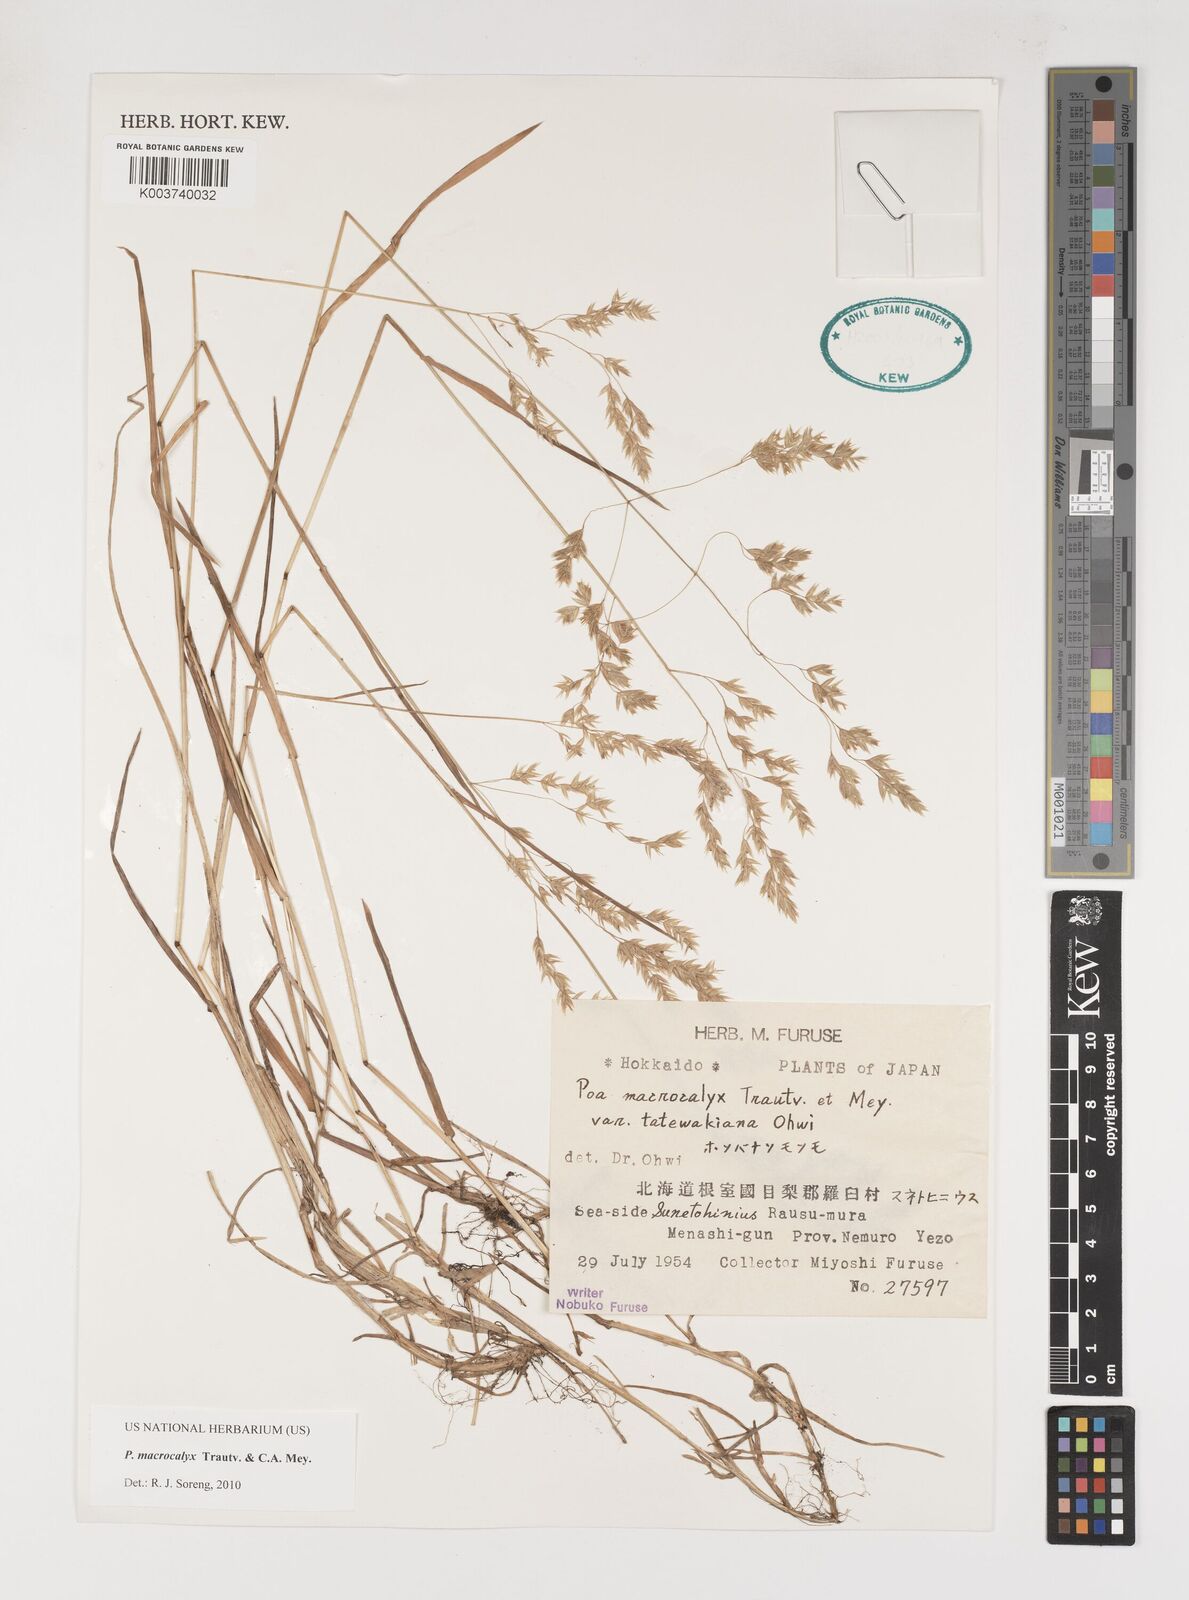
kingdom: Plantae
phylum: Tracheophyta
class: Liliopsida
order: Poales
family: Poaceae
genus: Poa
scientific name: Poa macrocalyx
